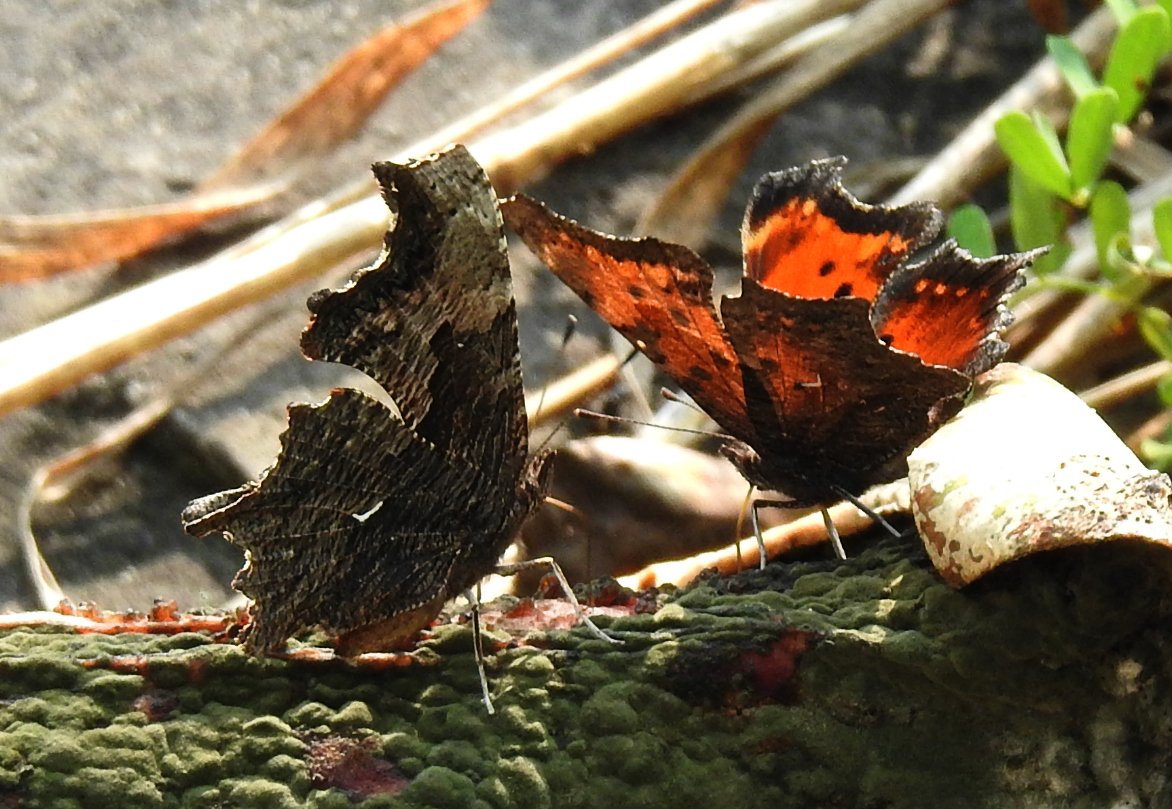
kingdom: Animalia
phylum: Arthropoda
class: Insecta
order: Lepidoptera
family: Nymphalidae
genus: Polygonia
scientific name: Polygonia progne
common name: Gray Comma
